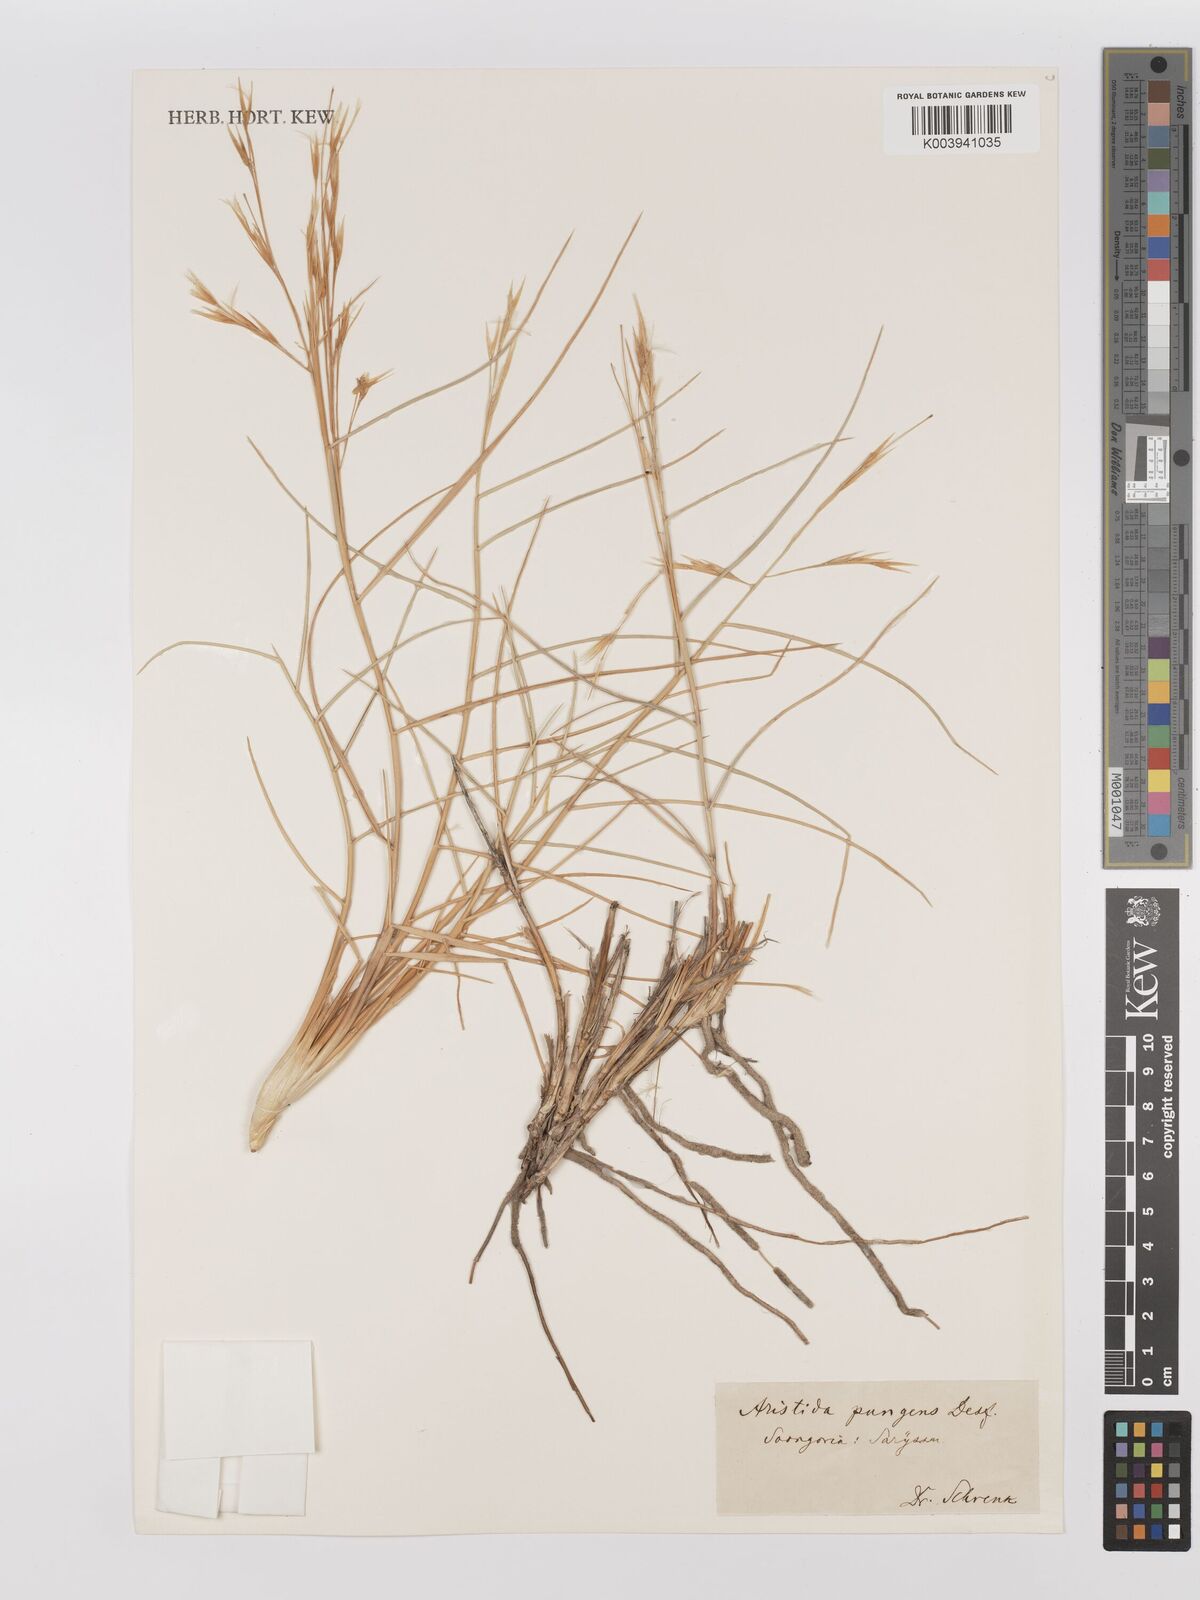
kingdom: Plantae
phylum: Tracheophyta
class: Liliopsida
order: Poales
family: Poaceae
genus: Stipagrostis
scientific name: Stipagrostis pungens
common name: Three-awn grass
